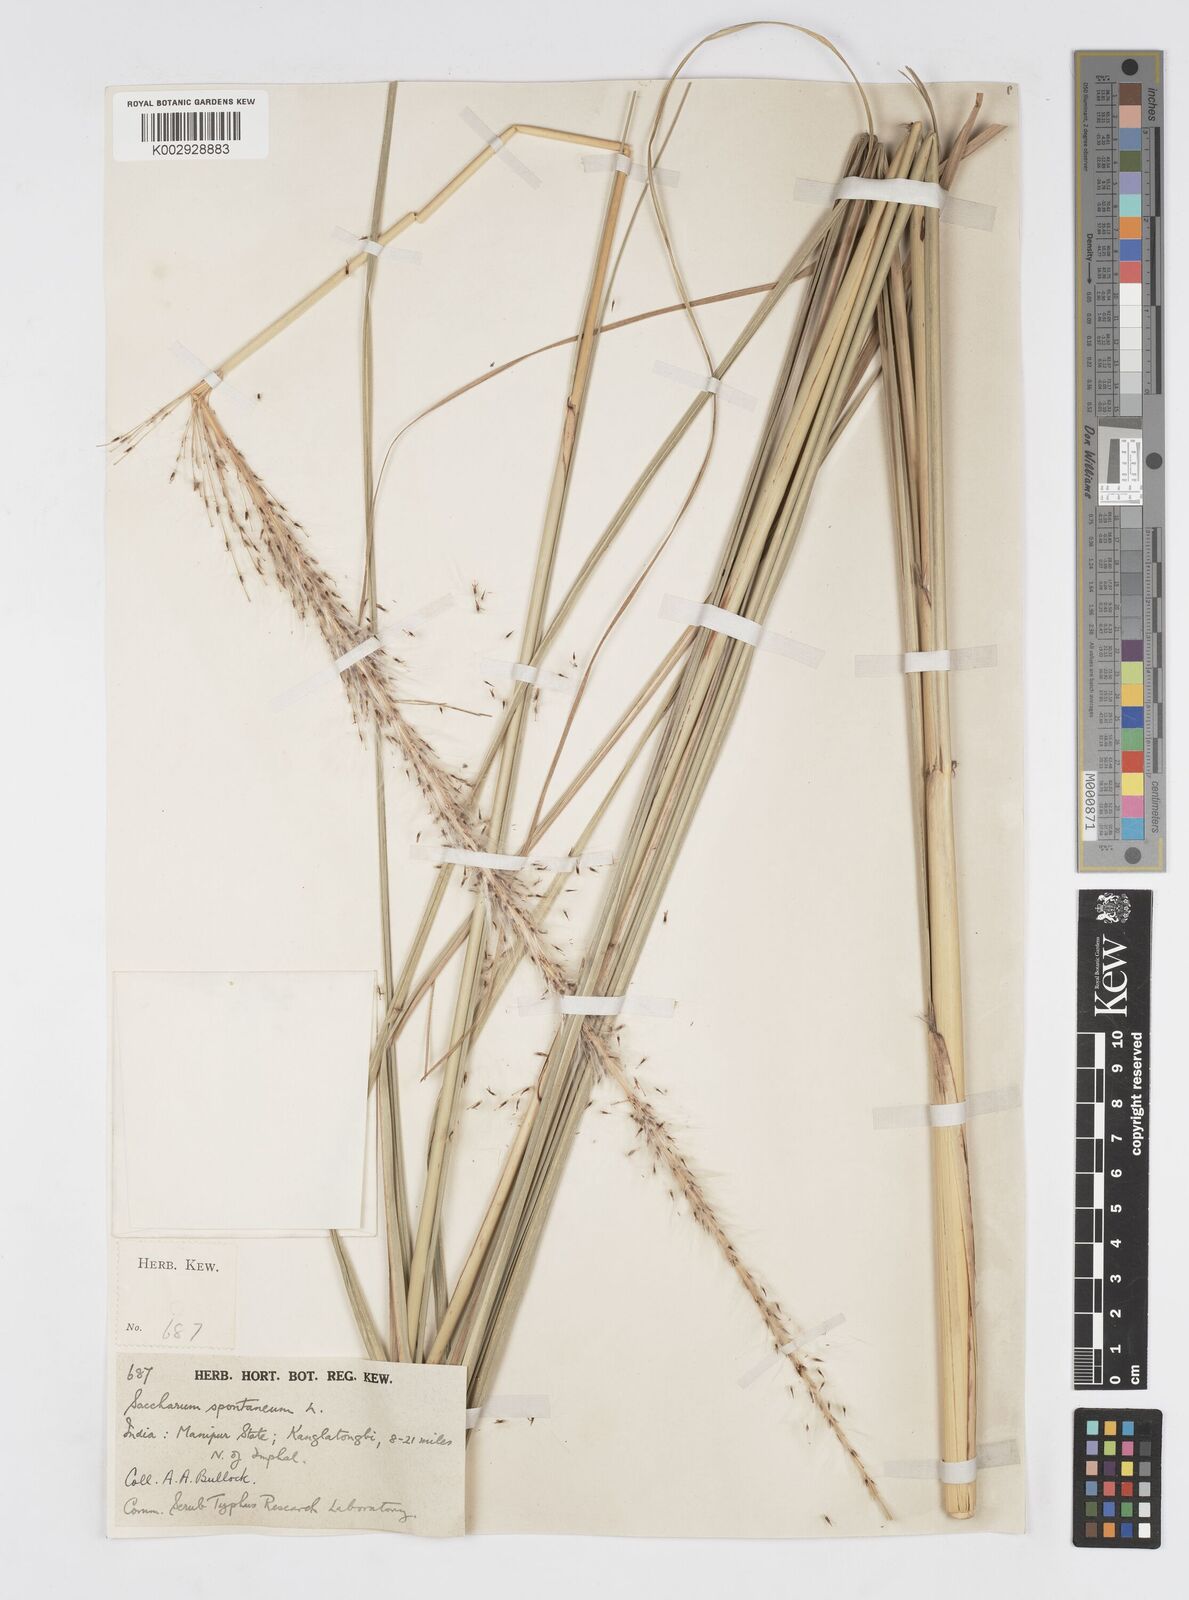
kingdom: Plantae
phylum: Tracheophyta
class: Liliopsida
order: Poales
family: Poaceae
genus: Saccharum
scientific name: Saccharum spontaneum
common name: Wild sugarcane
